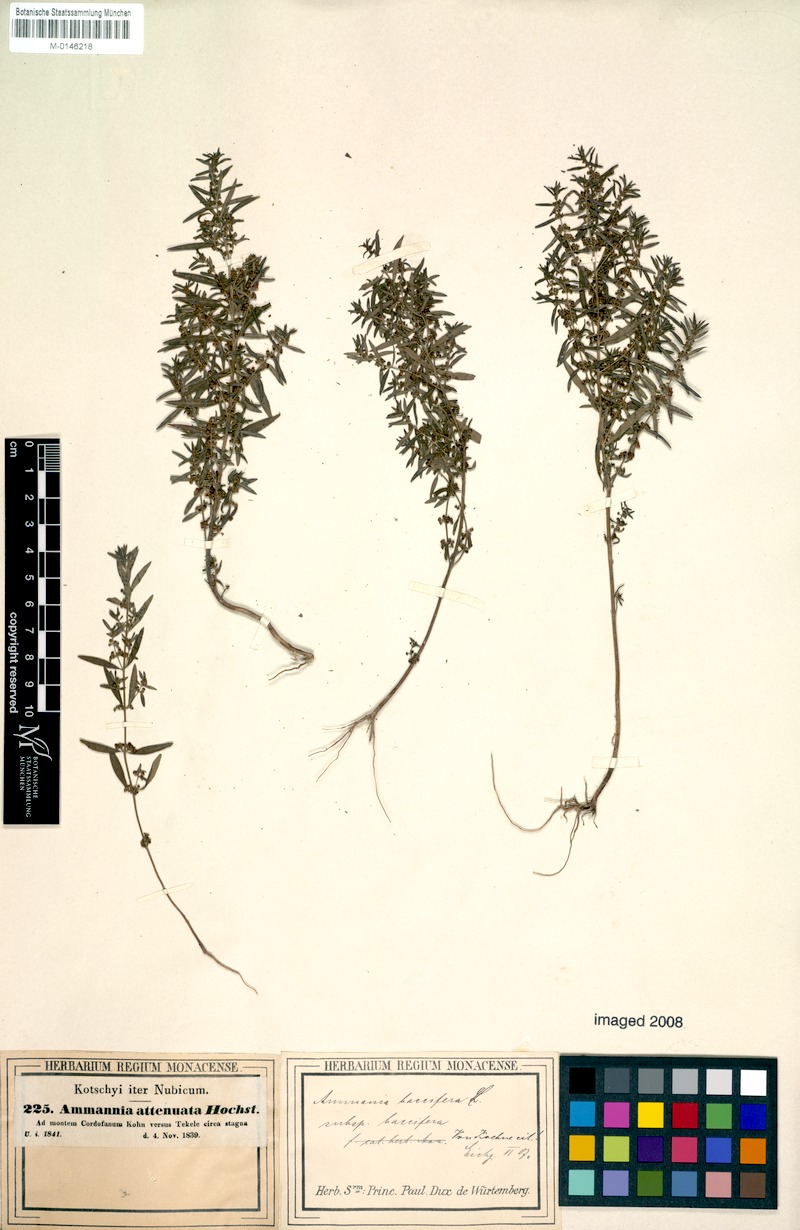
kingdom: Plantae
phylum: Tracheophyta
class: Magnoliopsida
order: Myrtales
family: Lythraceae
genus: Ammannia
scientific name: Ammannia baccifera
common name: Blistering ammania
